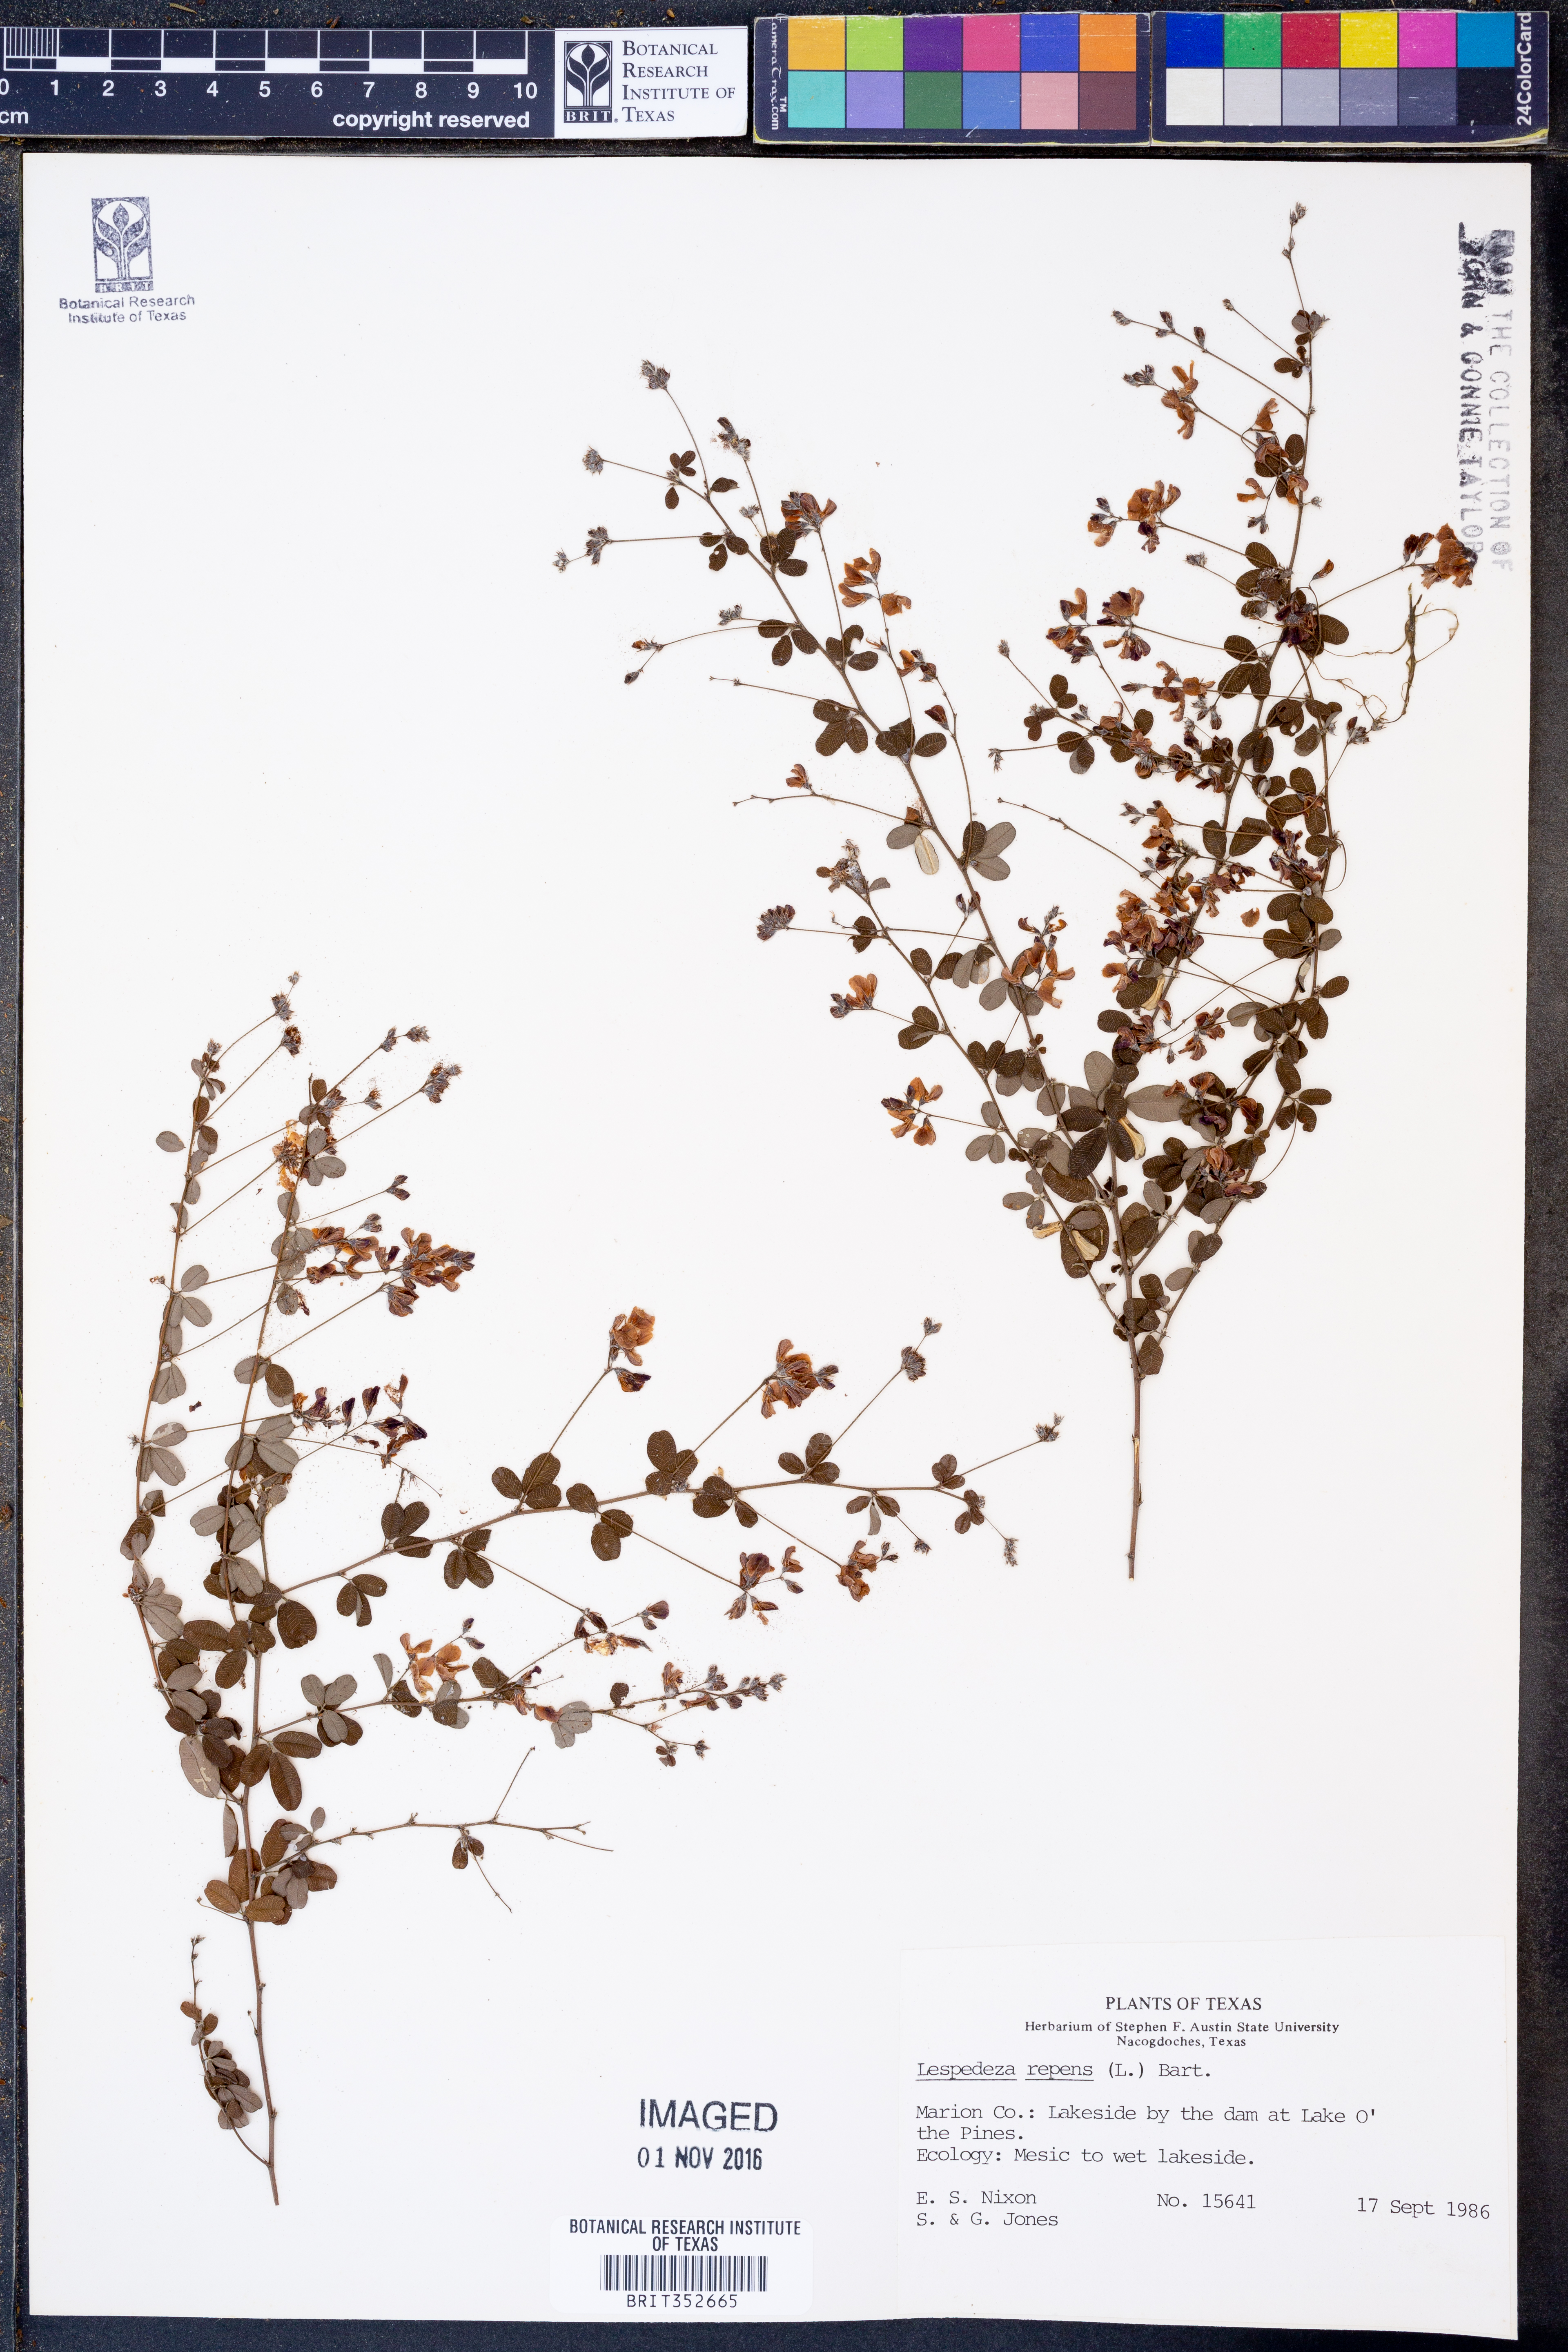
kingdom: Plantae
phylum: Tracheophyta
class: Magnoliopsida
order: Fabales
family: Fabaceae
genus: Lespedeza
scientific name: Lespedeza repens
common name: Creeping bush-clover
